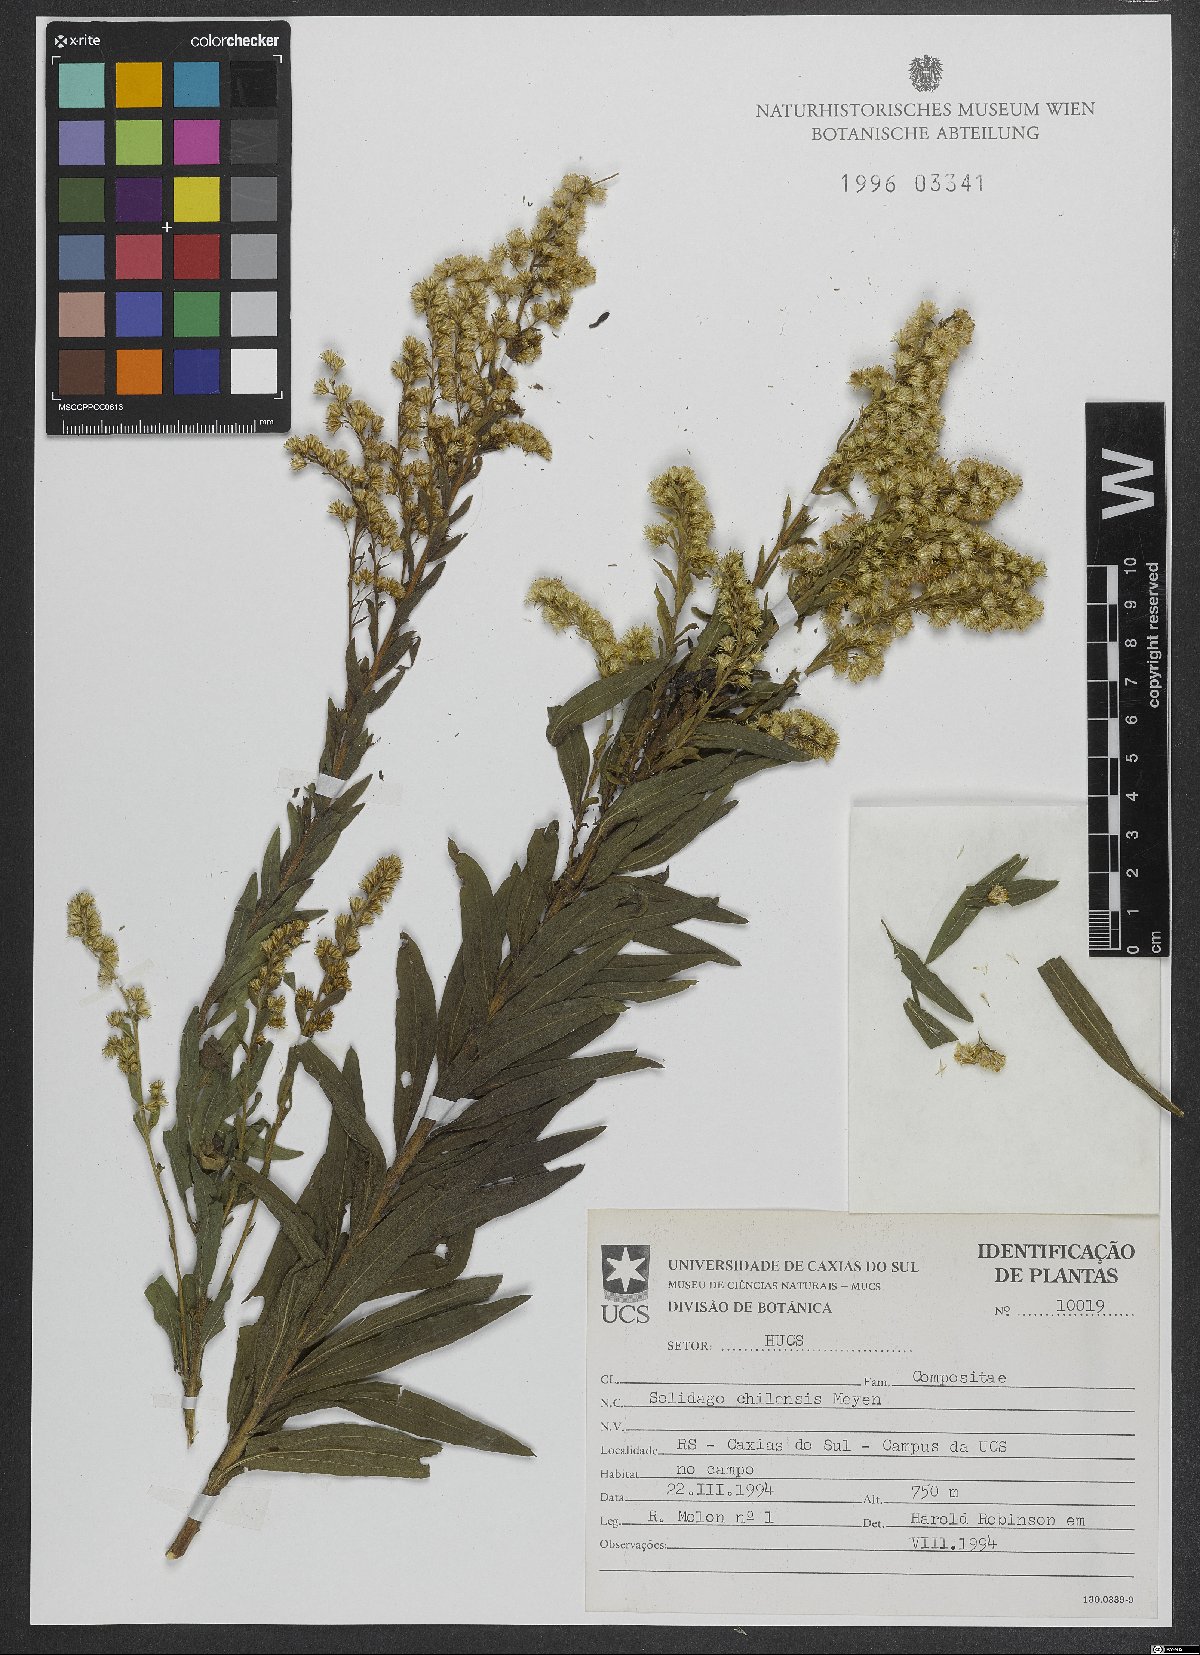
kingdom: Plantae
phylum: Tracheophyta
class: Magnoliopsida
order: Asterales
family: Asteraceae
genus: Solidago
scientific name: Solidago chilensis
